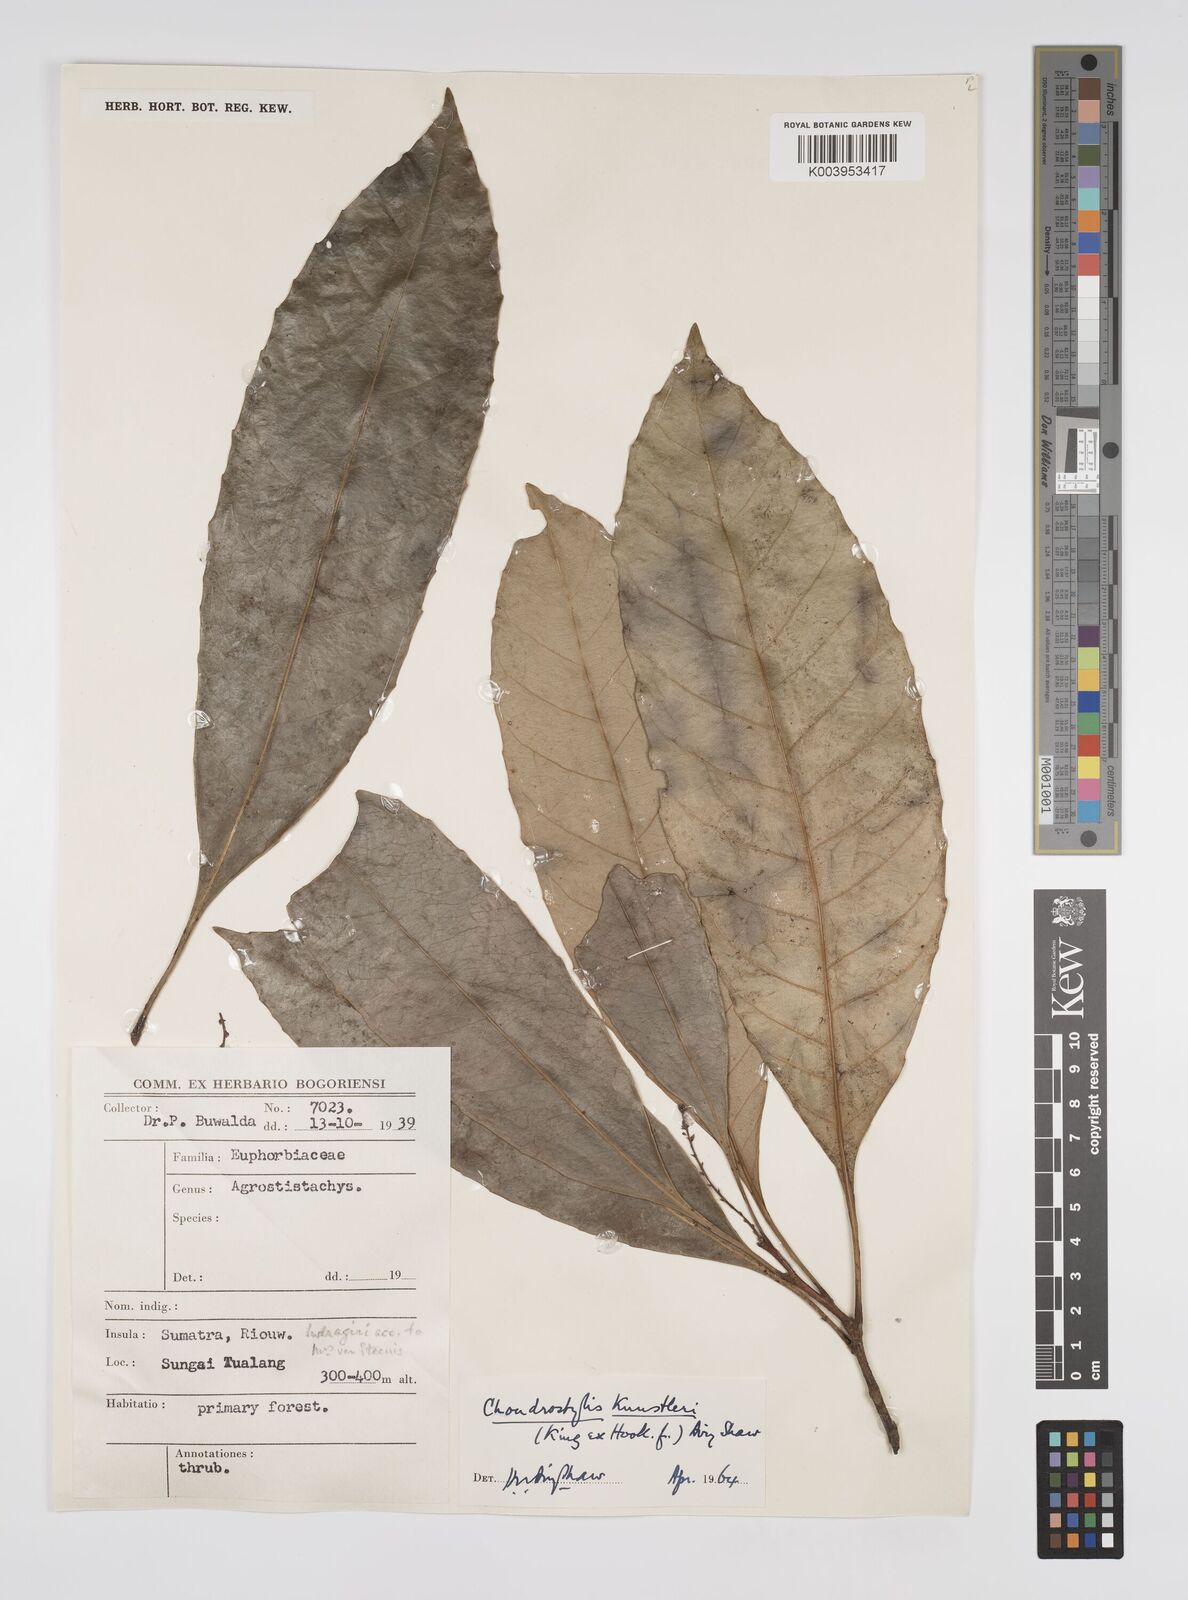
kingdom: Plantae
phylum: Tracheophyta
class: Magnoliopsida
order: Malpighiales
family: Euphorbiaceae
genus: Chondrostylis
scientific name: Chondrostylis kunstleri
